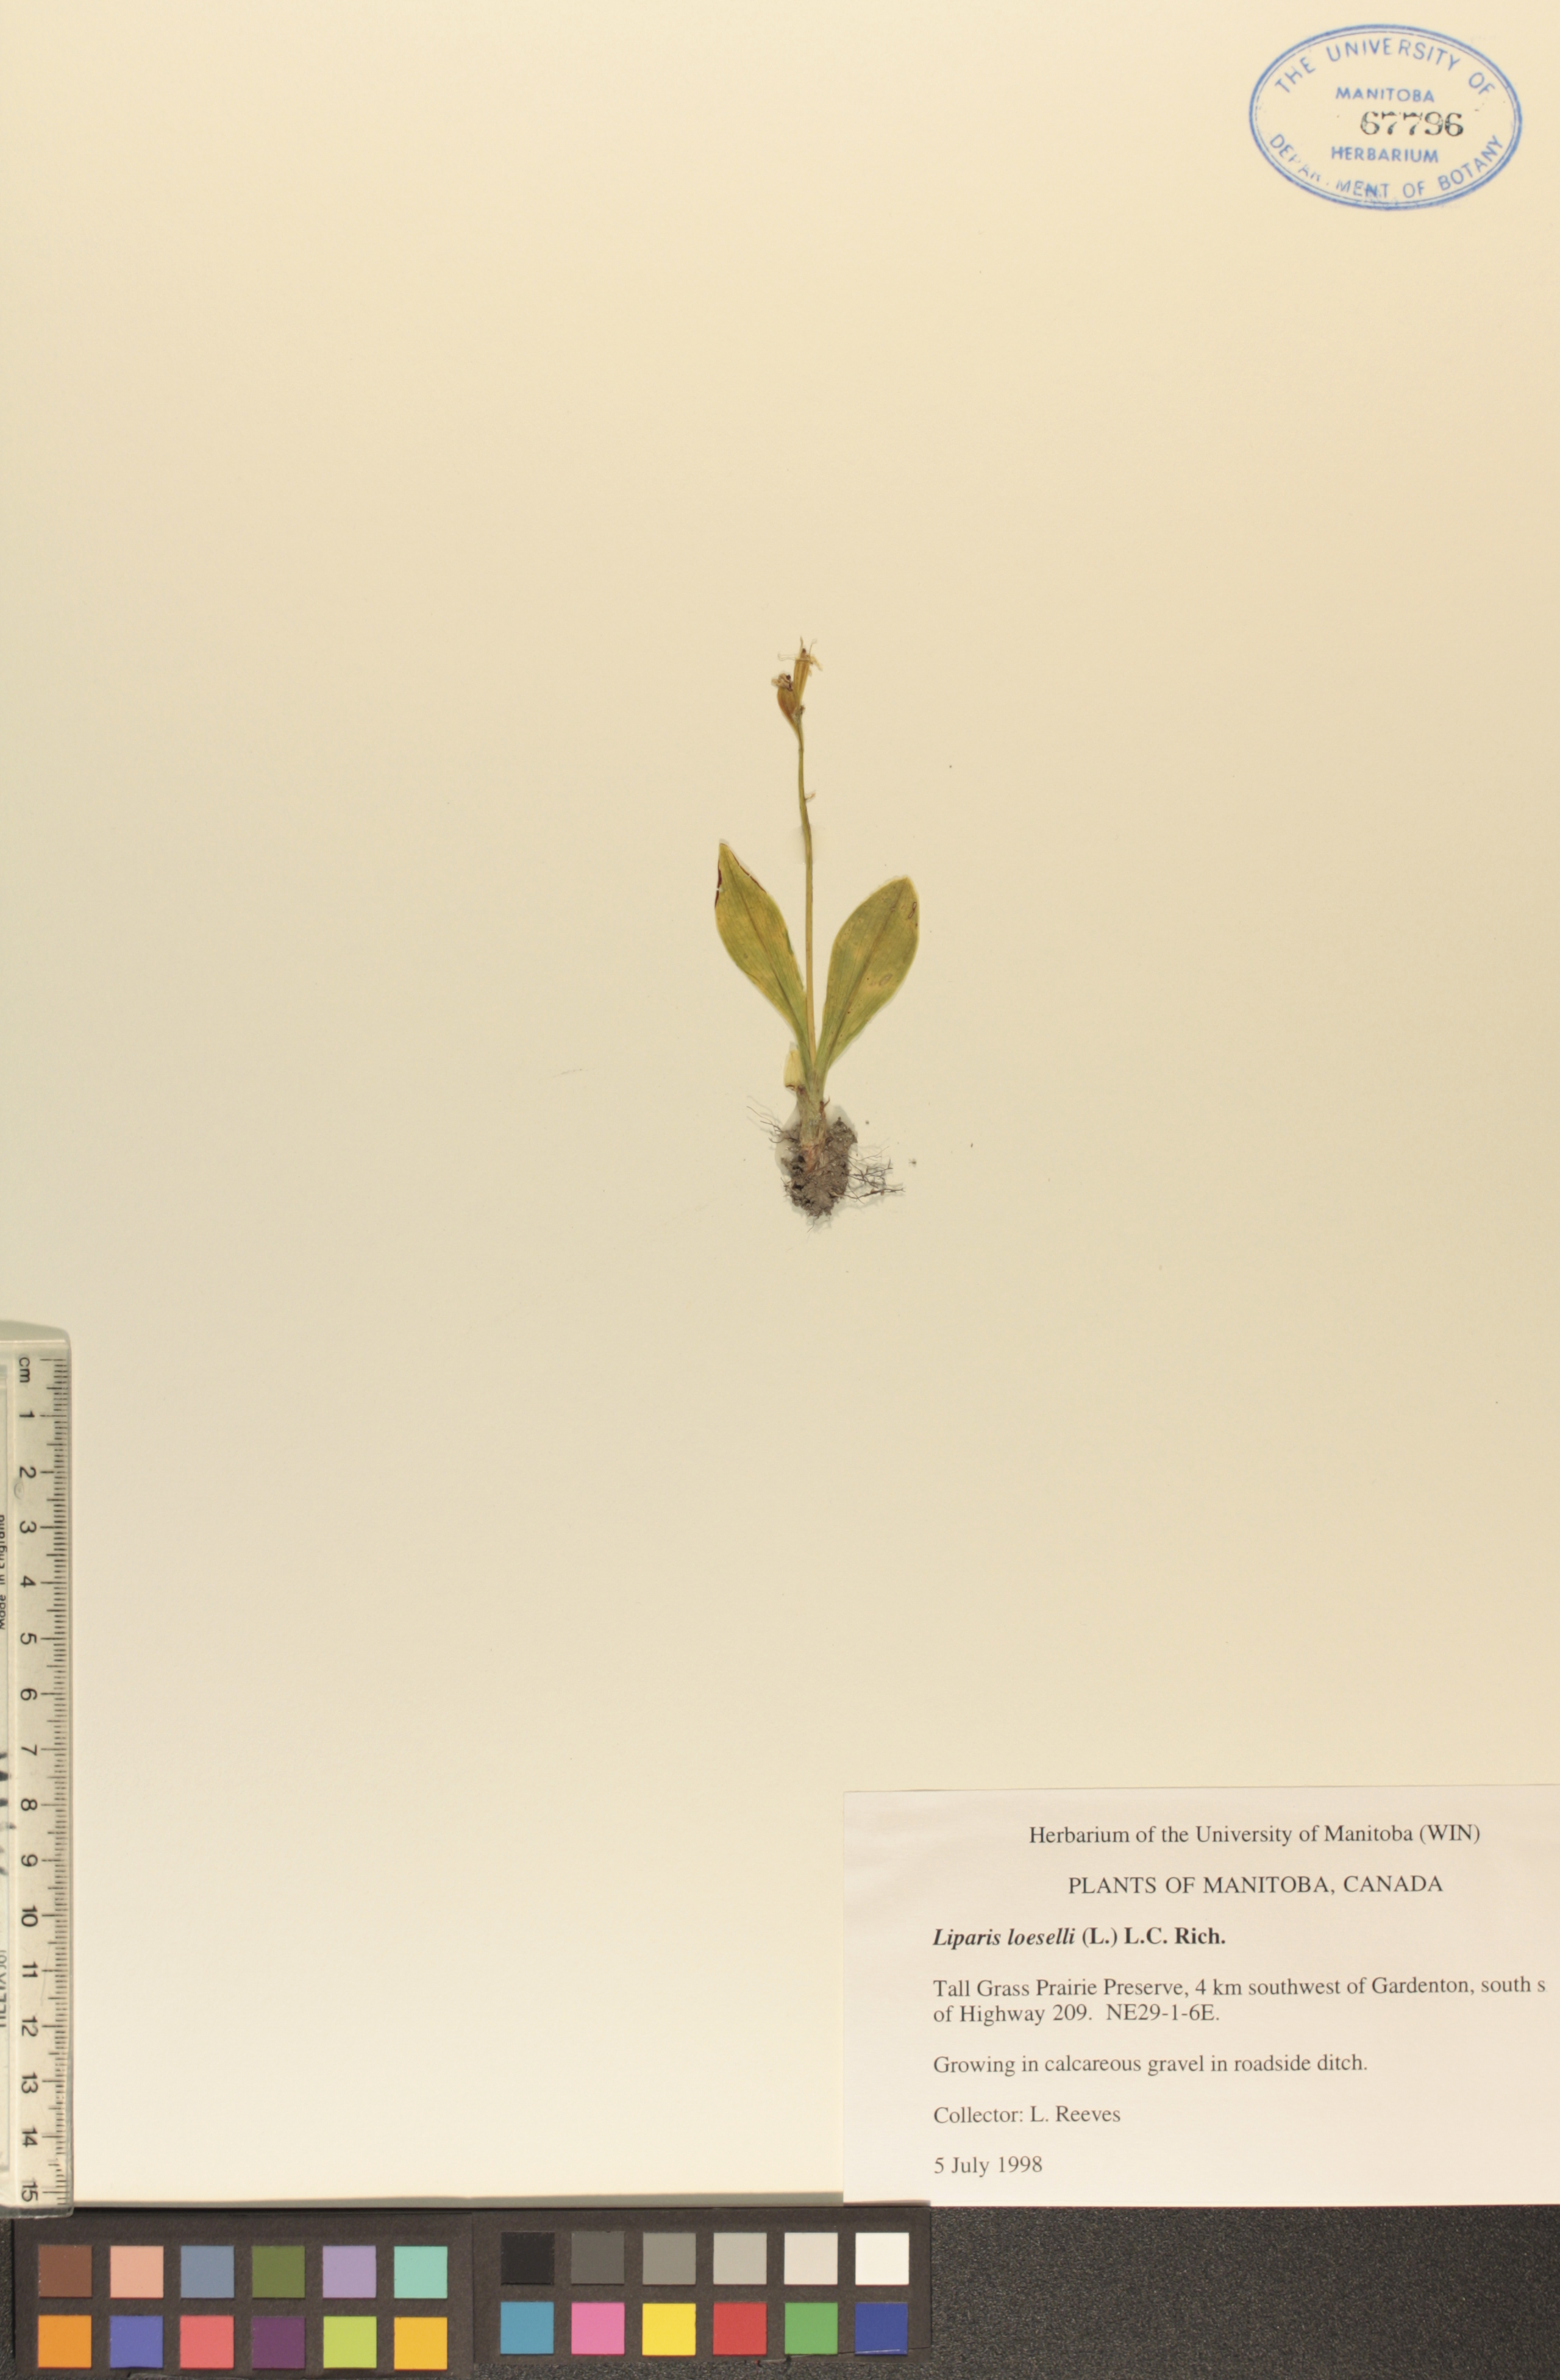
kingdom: Animalia
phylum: Arthropoda
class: Insecta
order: Coleoptera
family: Curculionidae
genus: Liparis
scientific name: Liparis loeselii
